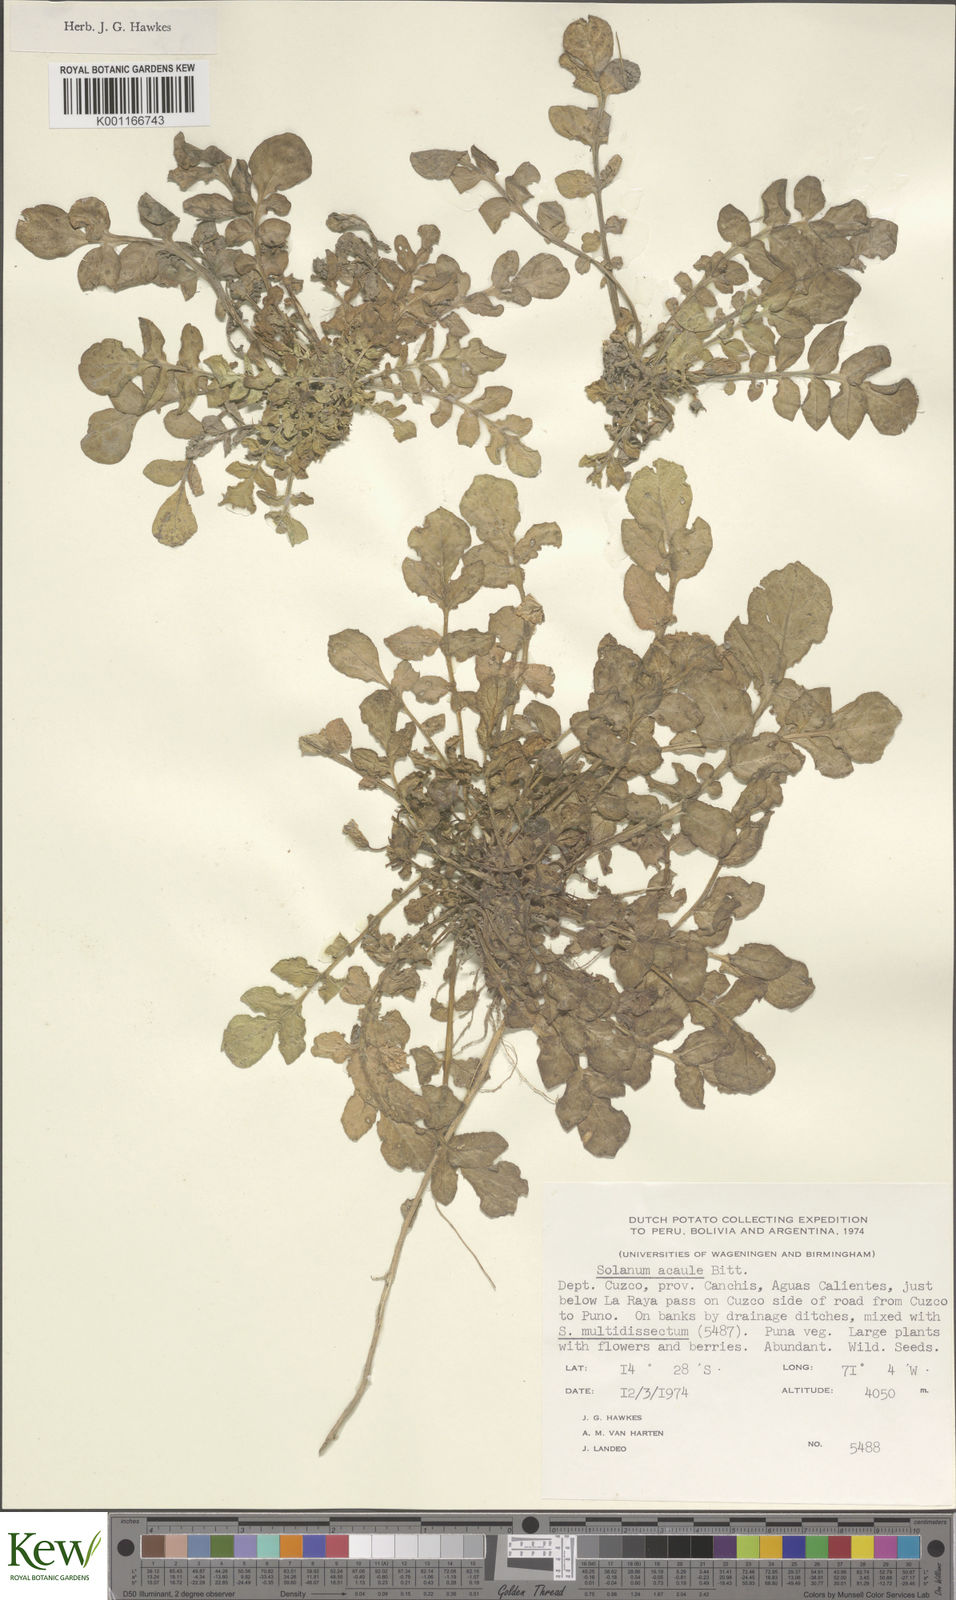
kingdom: Plantae
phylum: Tracheophyta
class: Magnoliopsida
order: Solanales
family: Solanaceae
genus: Solanum
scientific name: Solanum acaule
